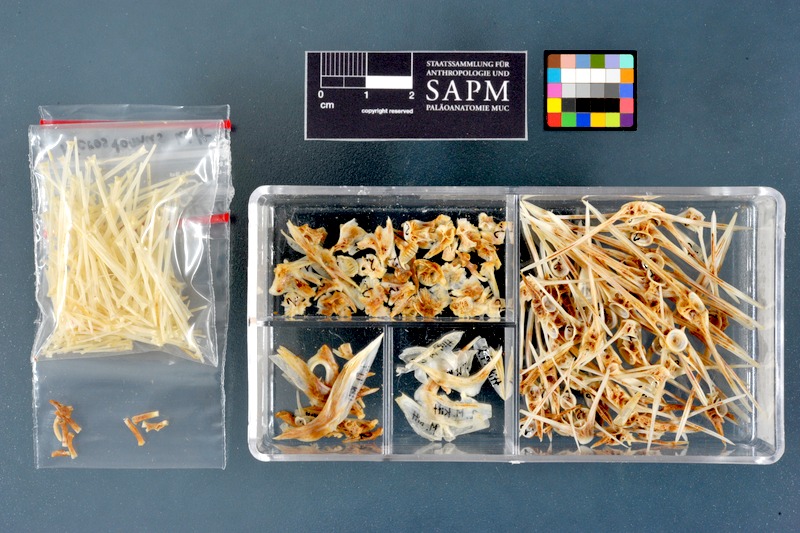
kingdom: Animalia
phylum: Chordata
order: Pleuronectiformes
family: Pleuronectidae
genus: Microstomus
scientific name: Microstomus kitt
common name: Lemon sole
